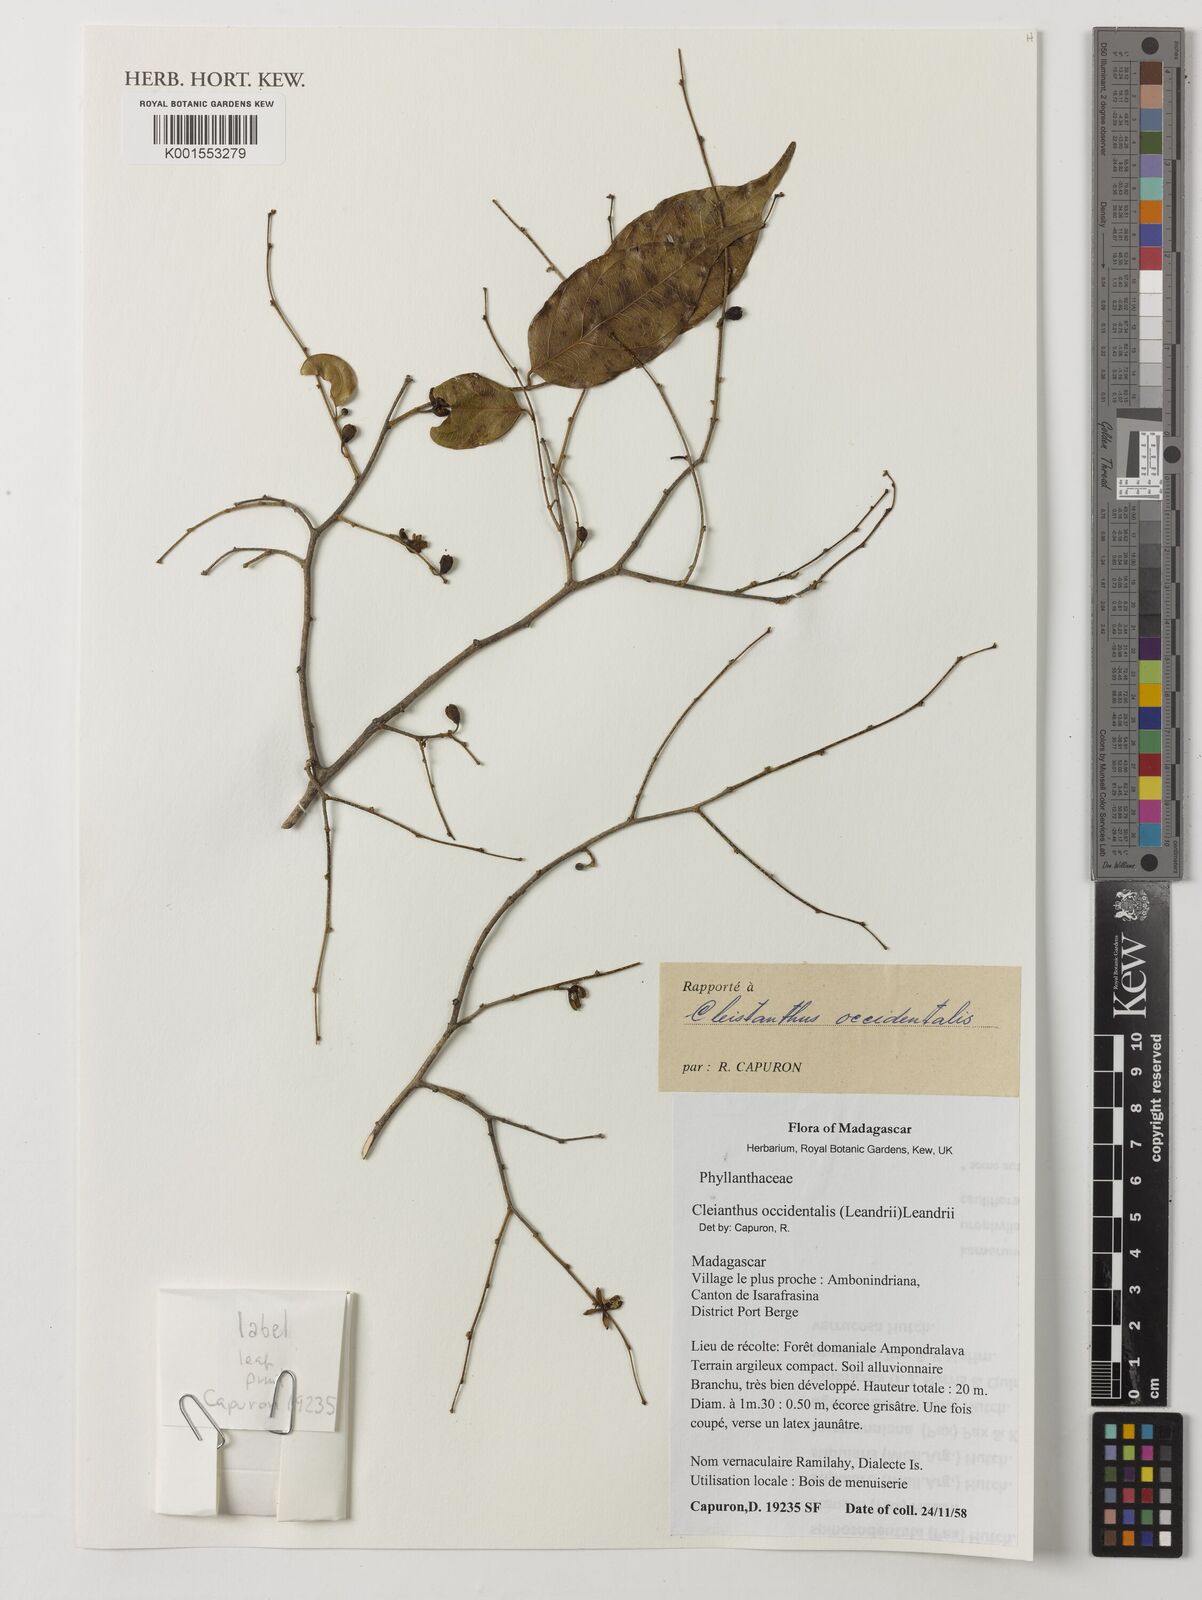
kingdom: Plantae
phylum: Tracheophyta
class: Magnoliopsida
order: Malpighiales
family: Phyllanthaceae
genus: Cleistanthus
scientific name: Cleistanthus occidentalis
